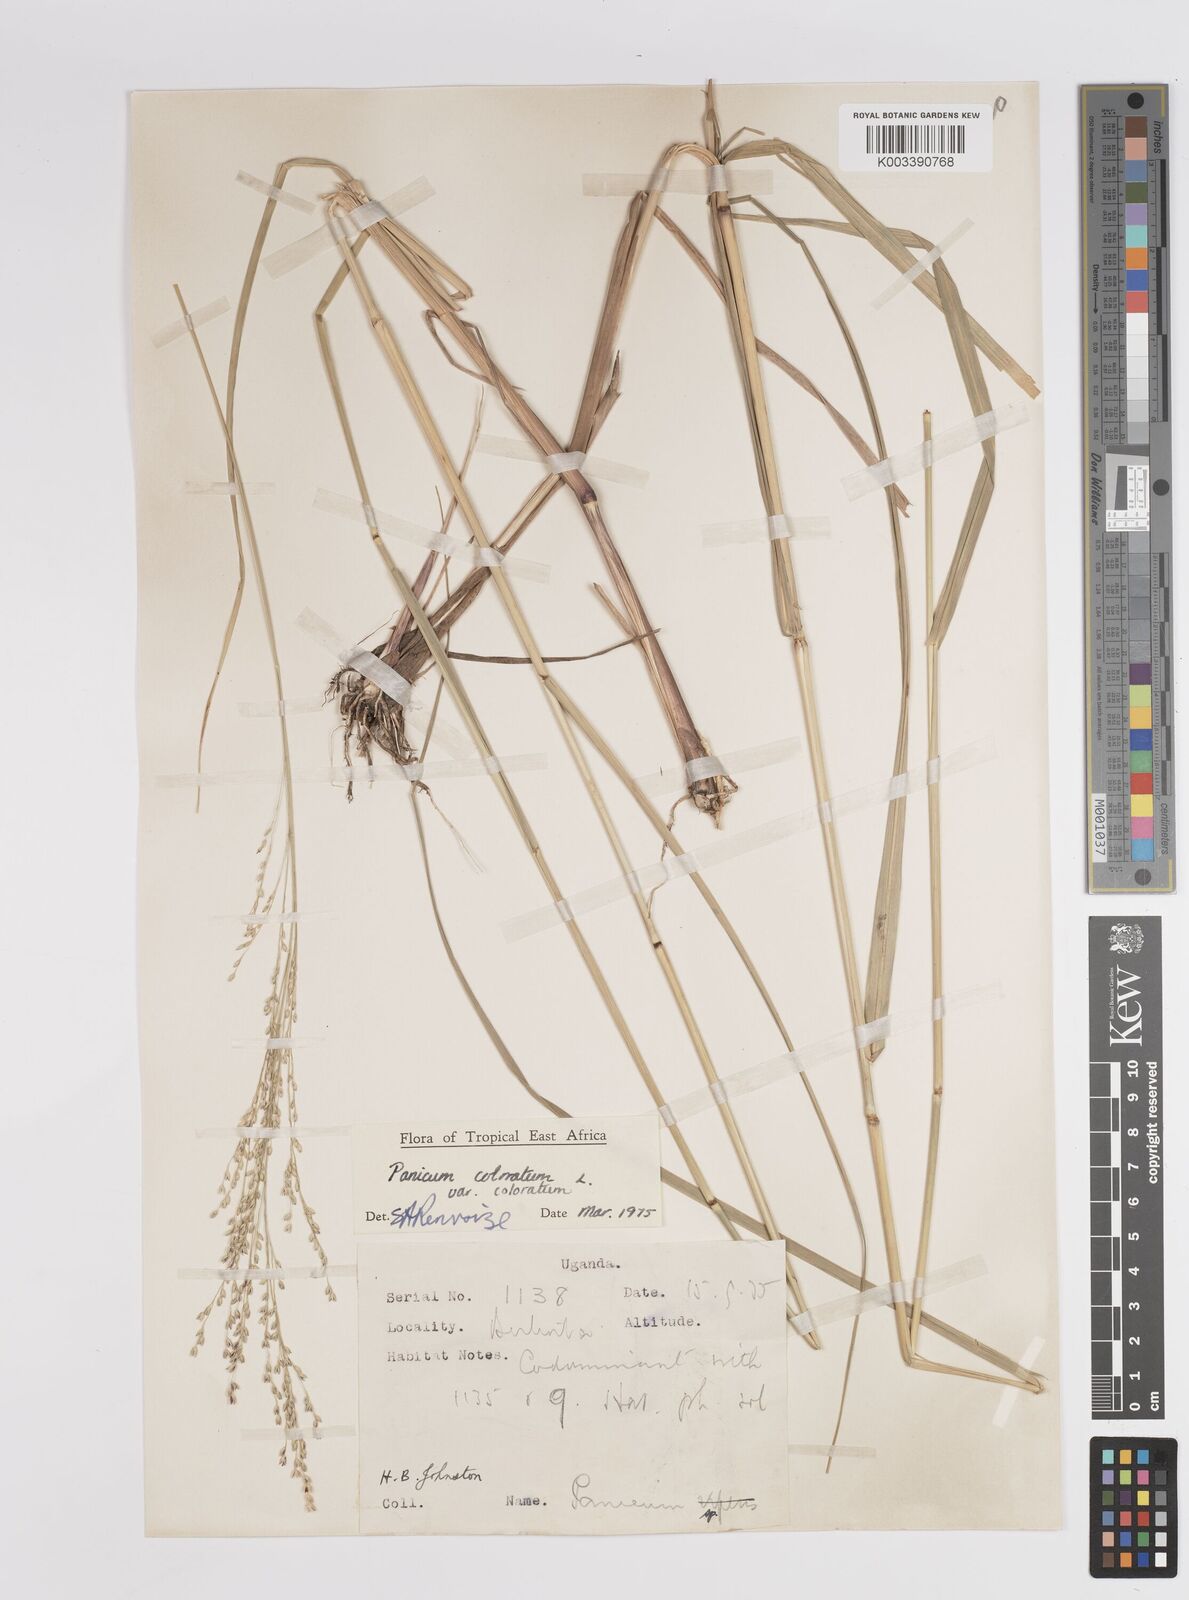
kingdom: Plantae
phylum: Tracheophyta
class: Liliopsida
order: Poales
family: Poaceae
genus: Panicum
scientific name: Panicum coloratum
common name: Kleingrass
